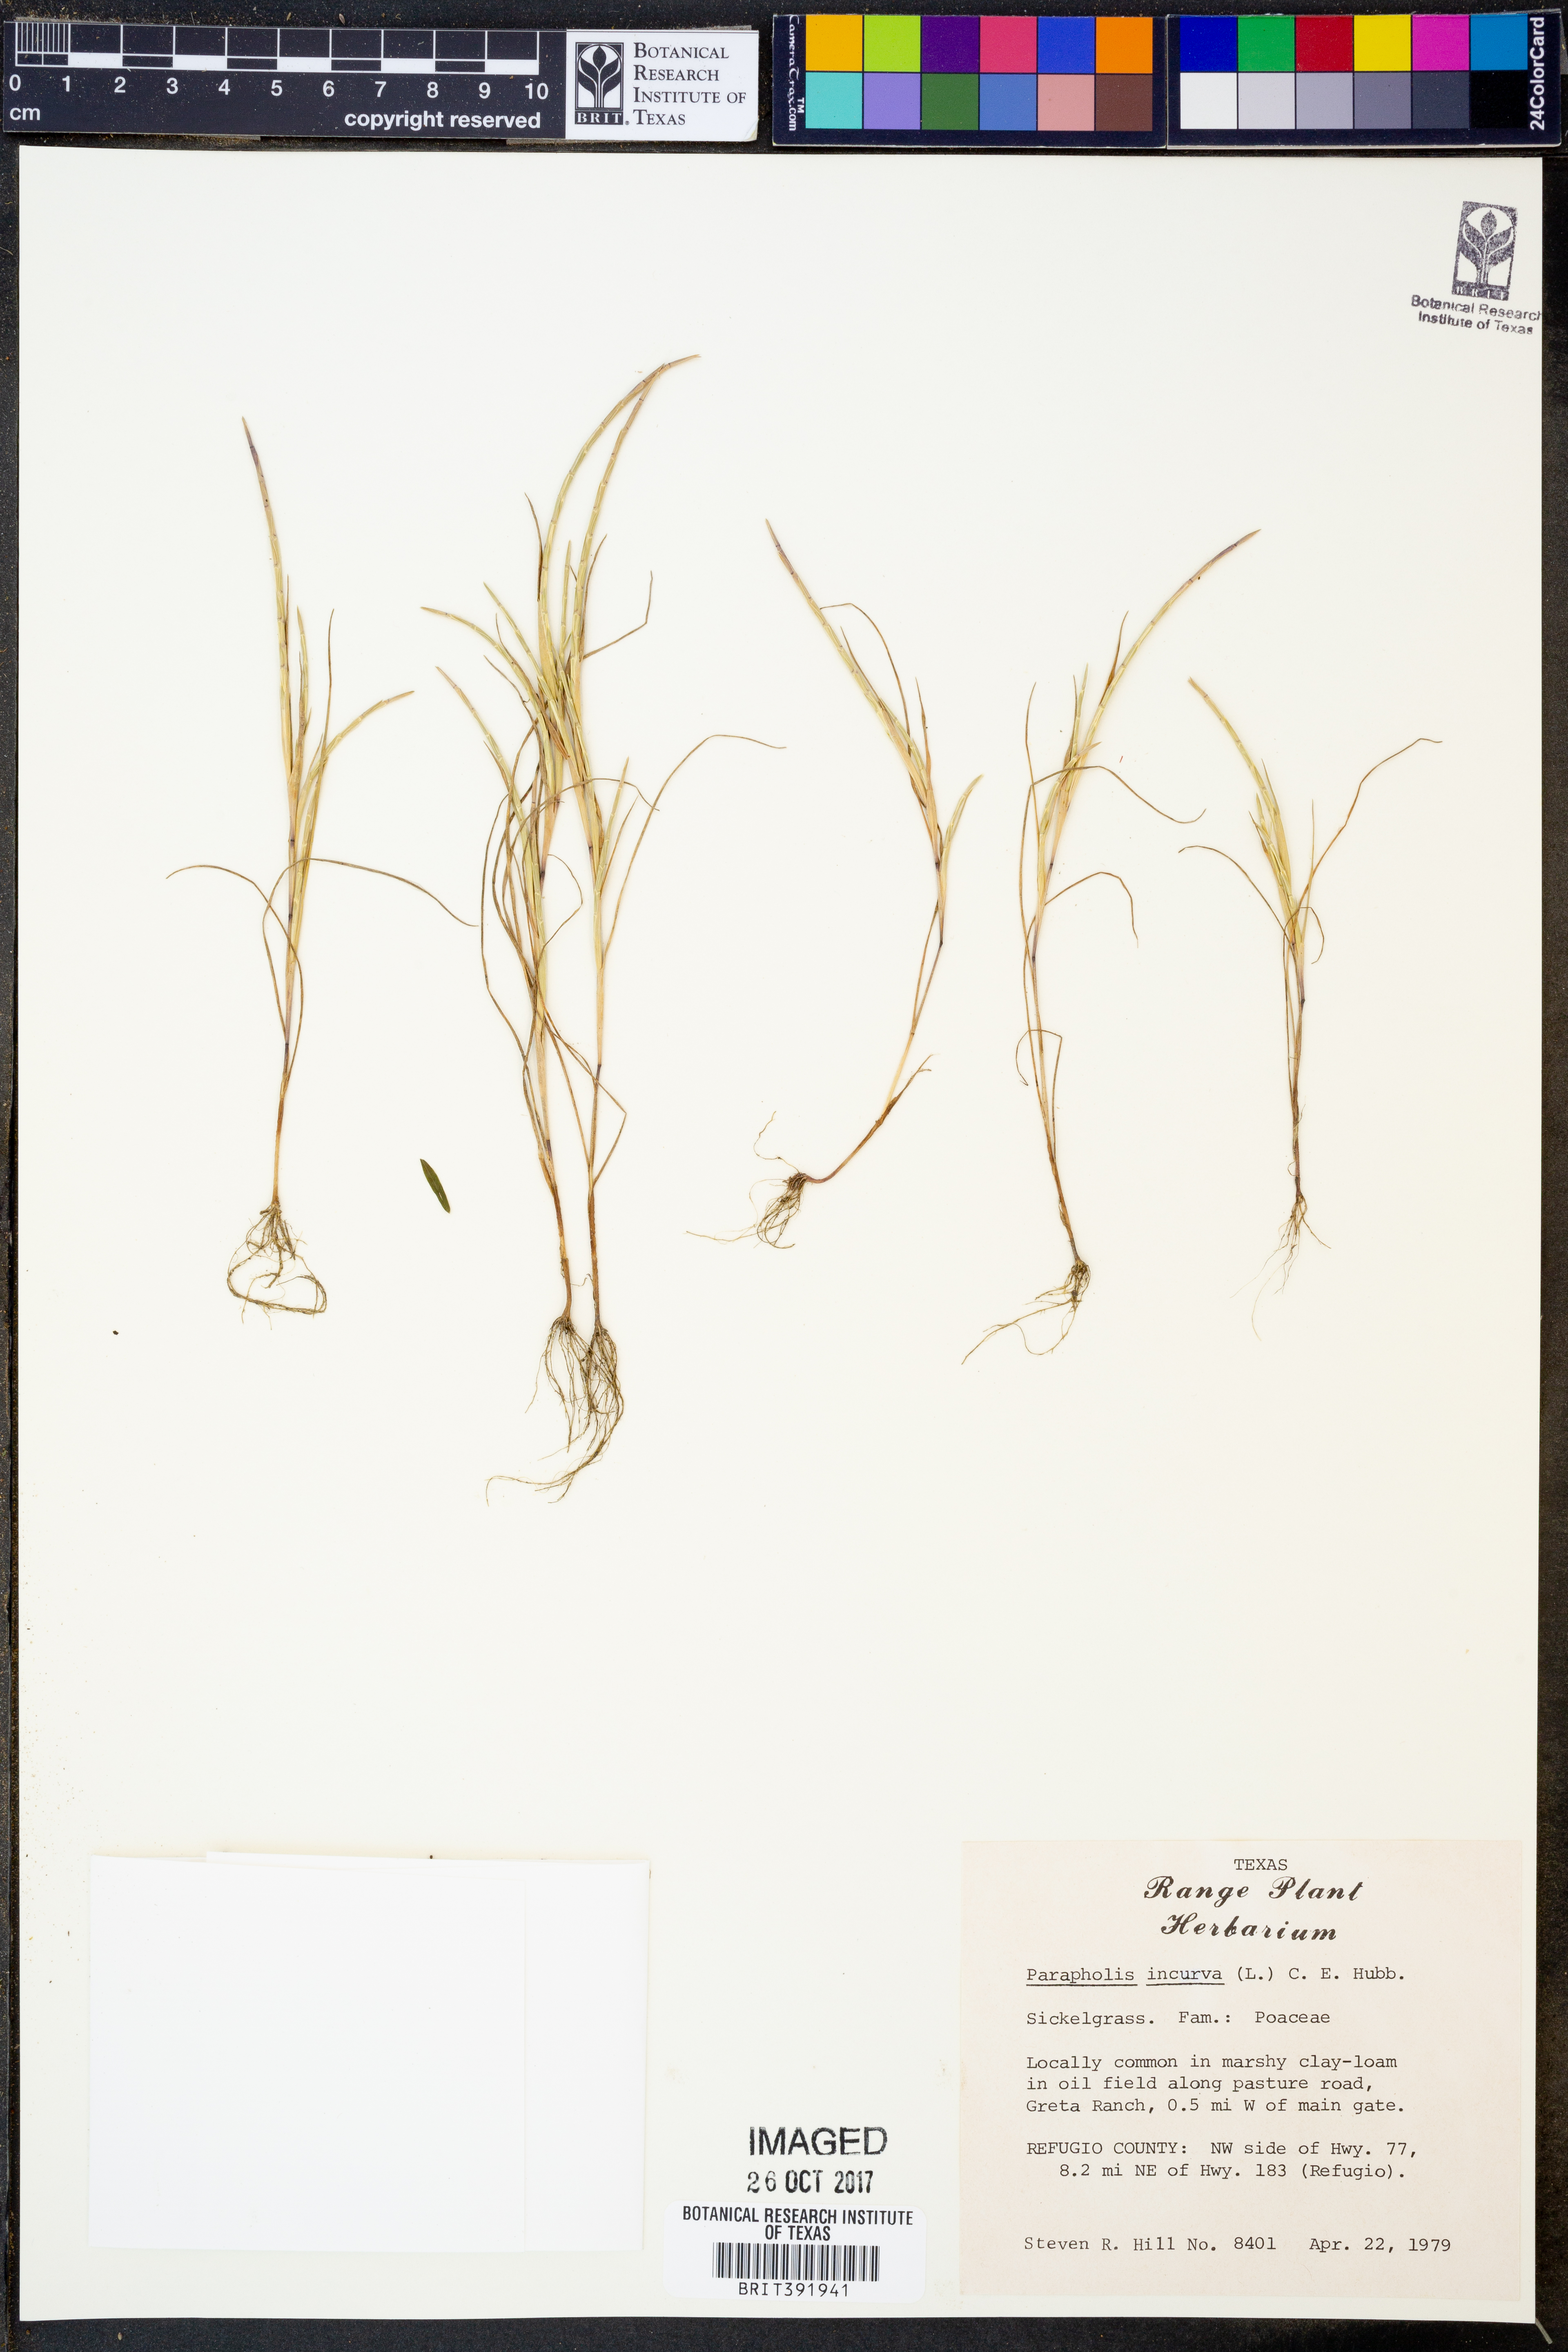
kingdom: Plantae
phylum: Tracheophyta
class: Liliopsida
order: Poales
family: Poaceae
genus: Parapholis
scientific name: Parapholis incurva
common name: Curved sicklegrass
